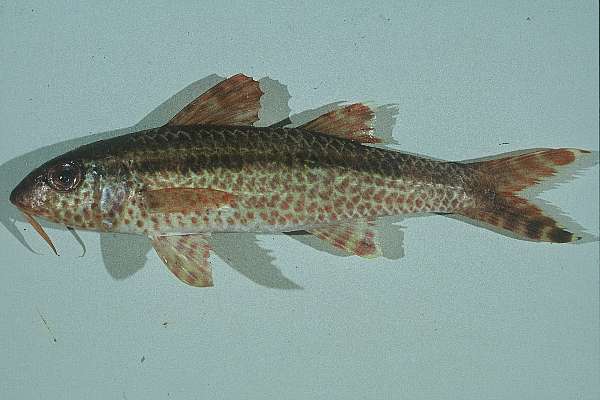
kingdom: Animalia
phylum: Chordata
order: Perciformes
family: Mullidae
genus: Upeneus
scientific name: Upeneus heemstra
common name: Heemstra’s goatfish
